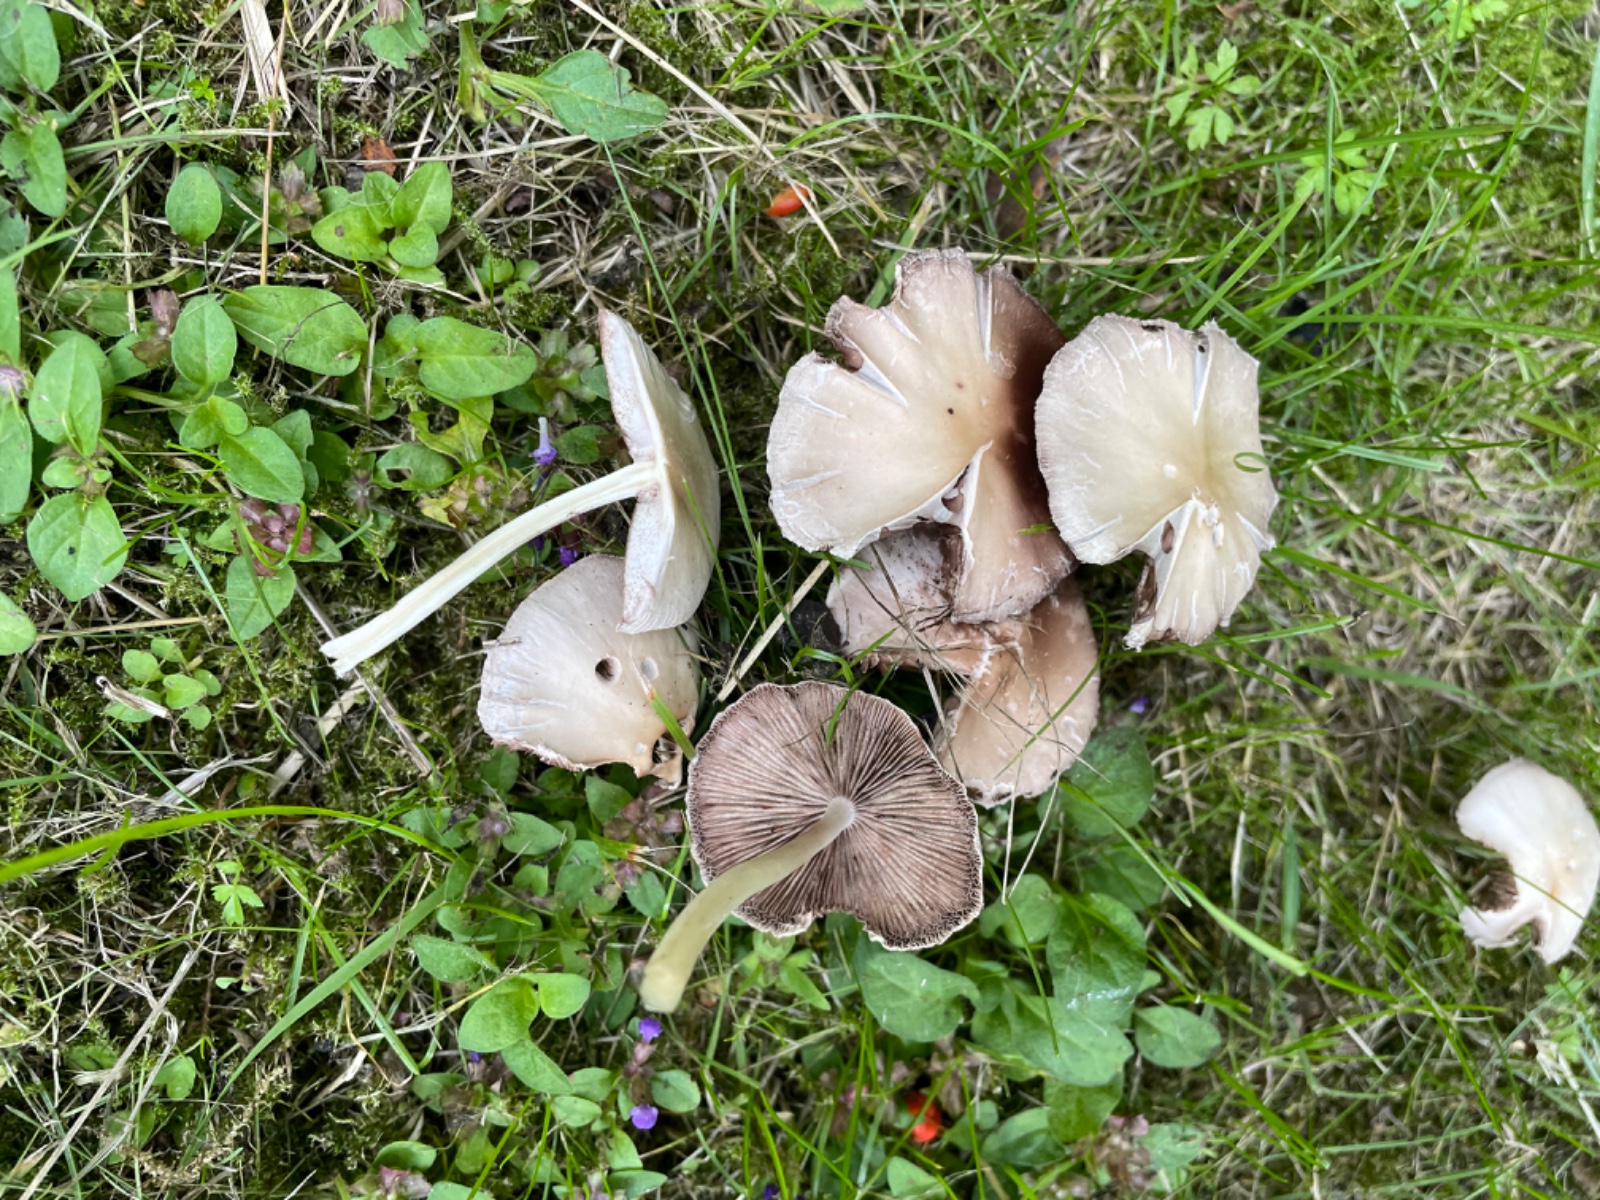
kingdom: Fungi
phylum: Basidiomycota
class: Agaricomycetes
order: Agaricales
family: Psathyrellaceae
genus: Candolleomyces
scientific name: Candolleomyces candolleanus
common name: Candolles mørkhat
